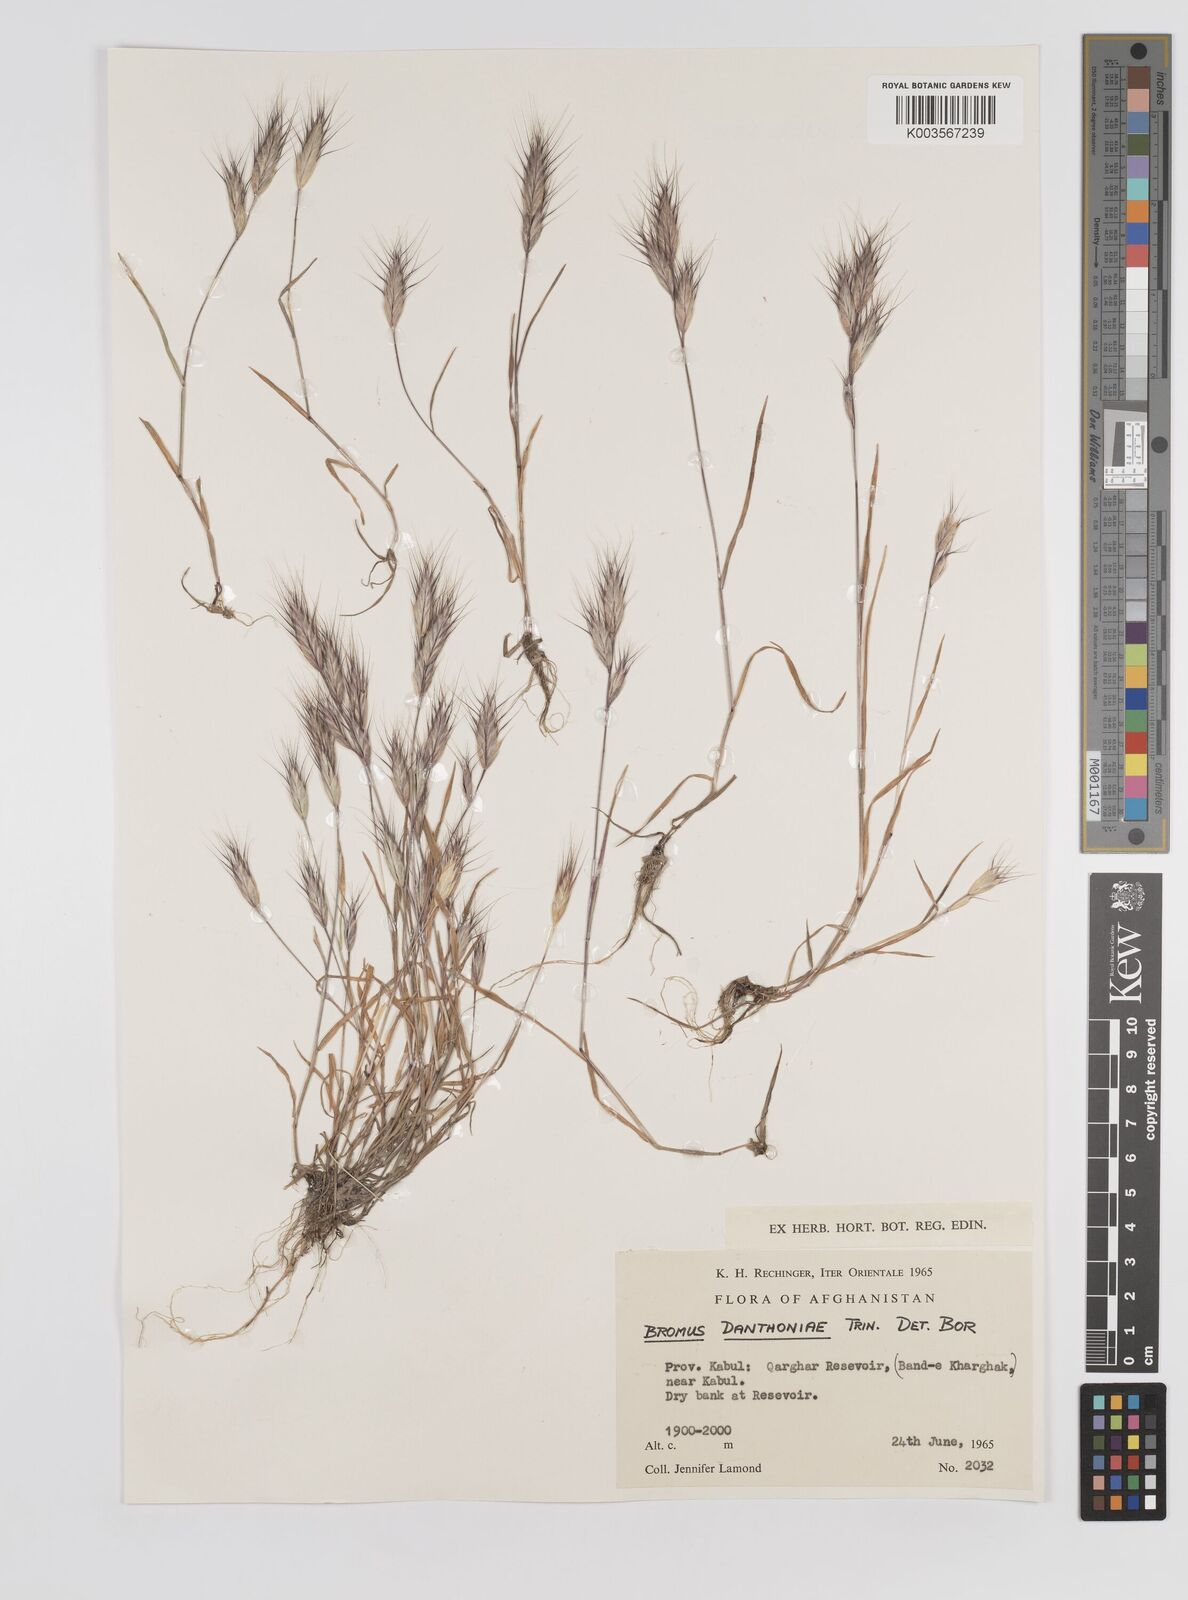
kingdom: Plantae
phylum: Tracheophyta
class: Liliopsida
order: Poales
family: Poaceae
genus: Bromus
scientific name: Bromus danthoniae
